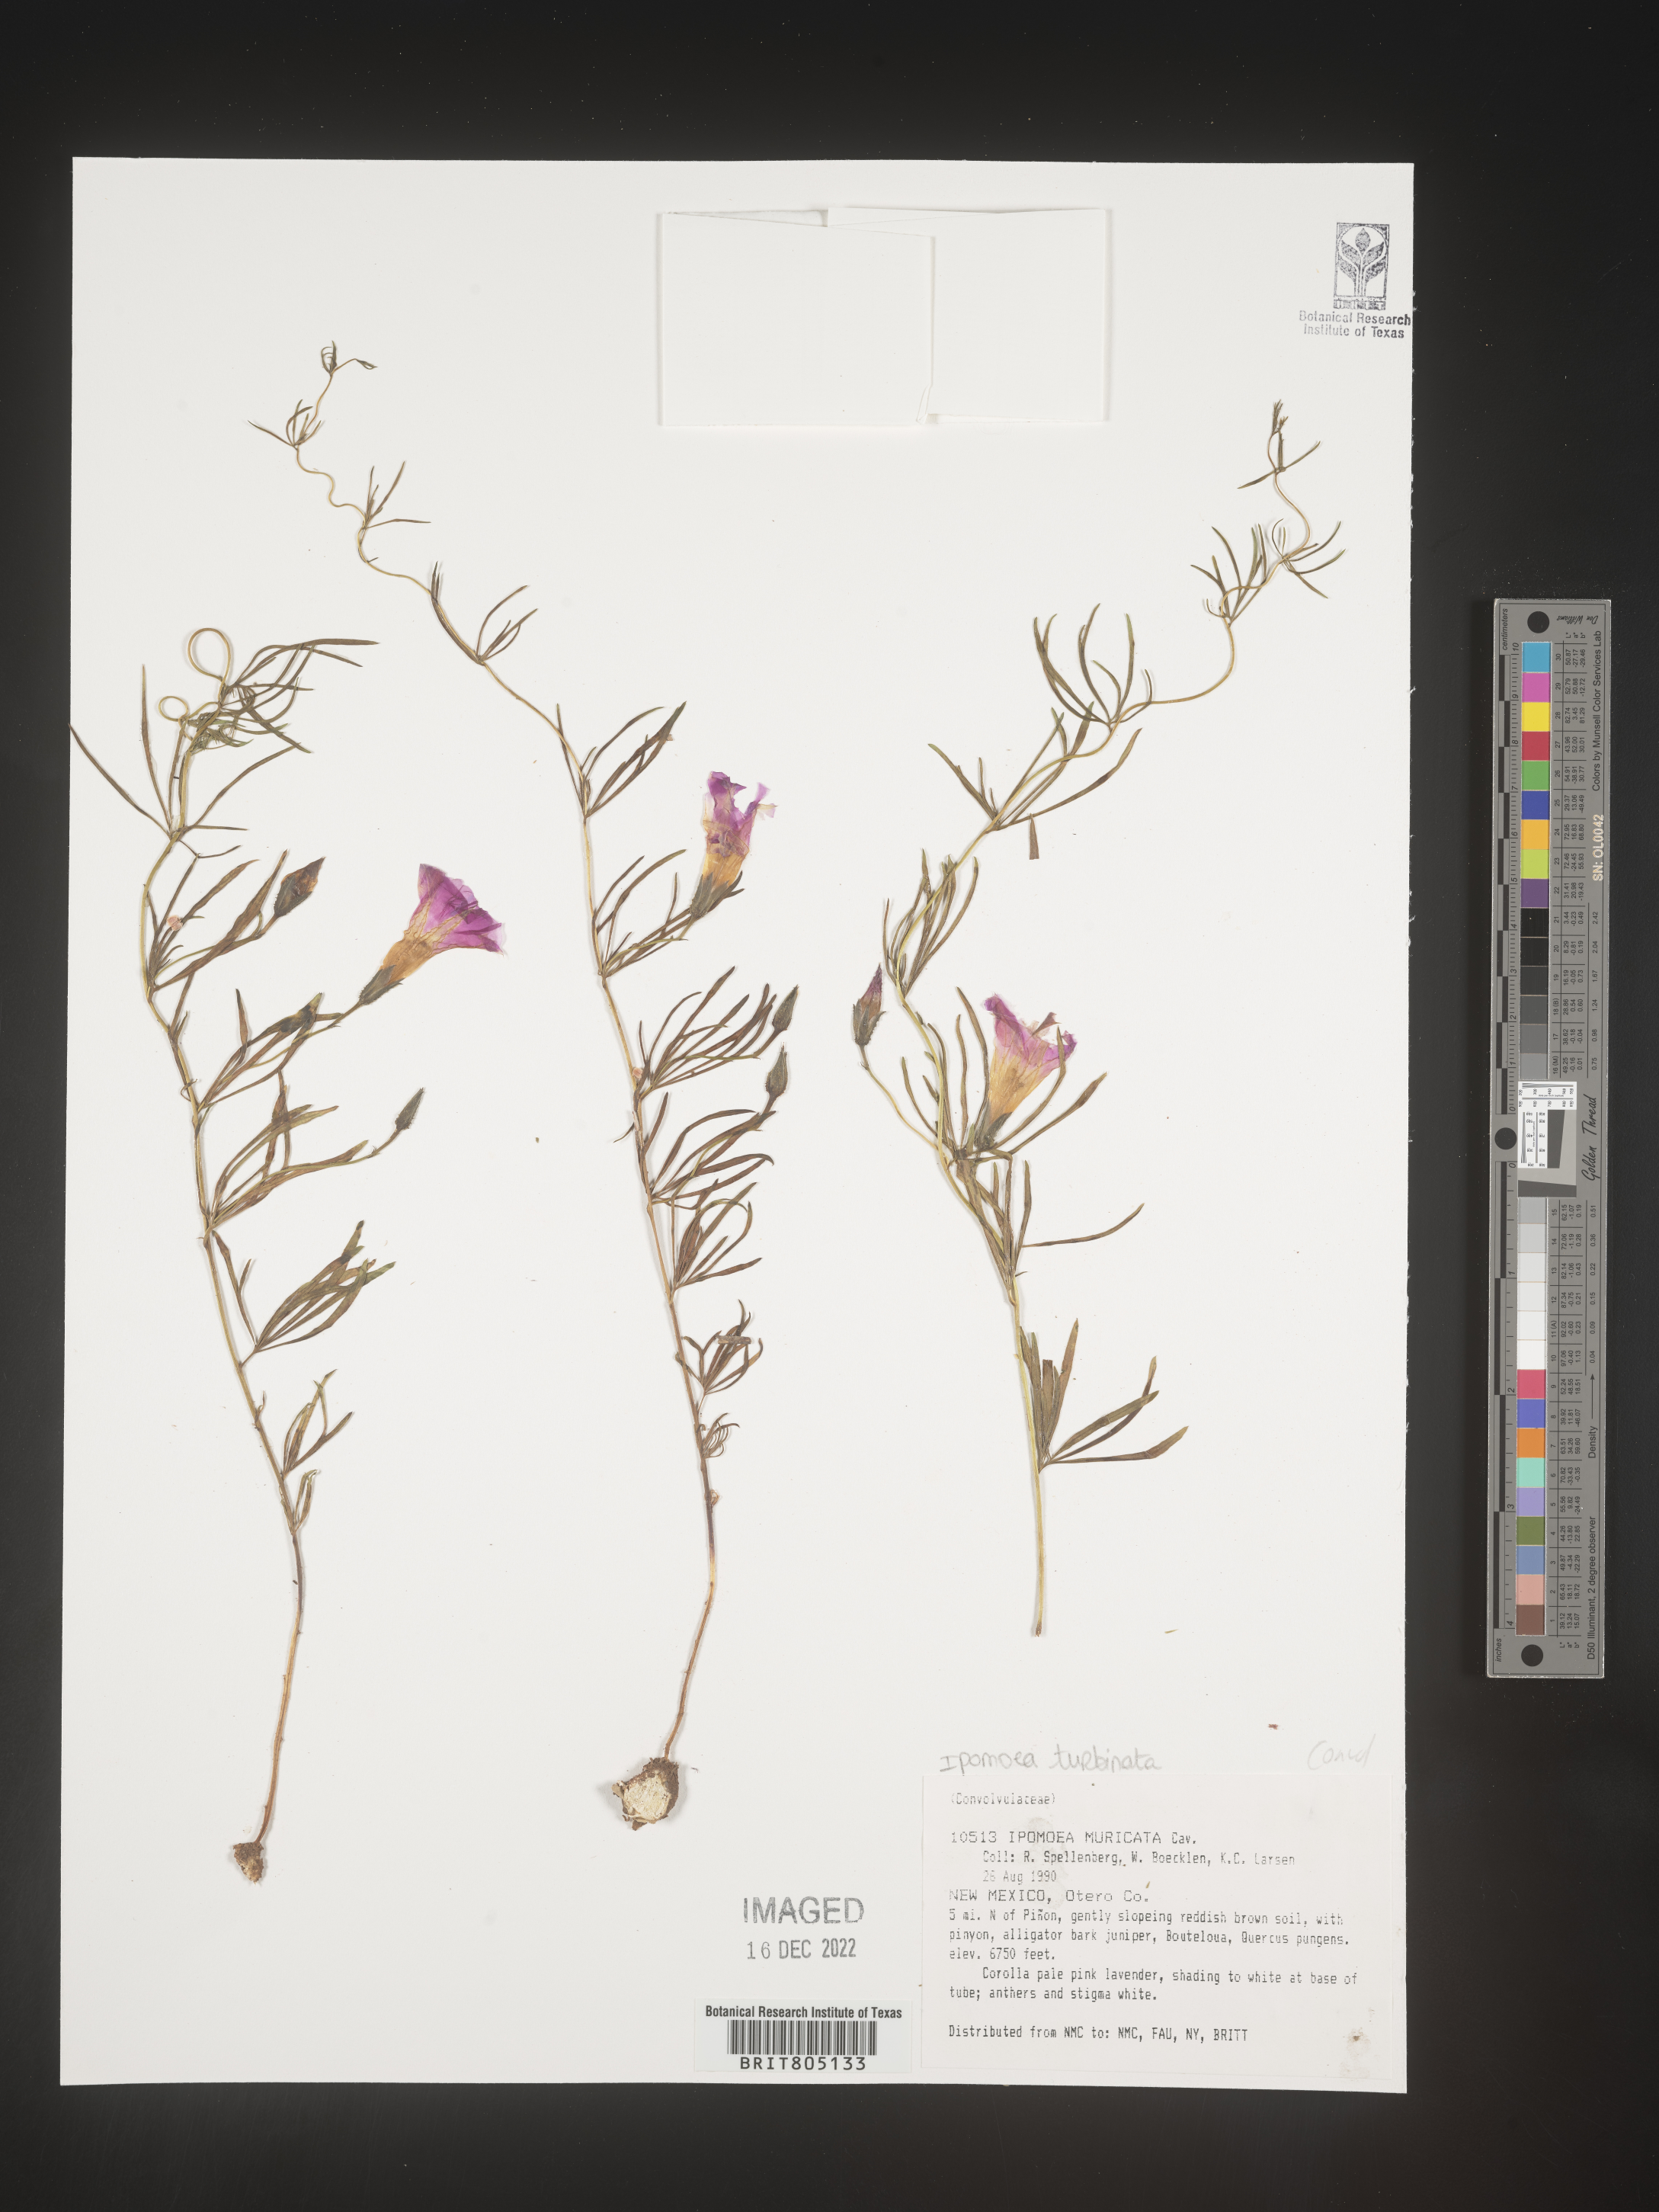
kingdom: Plantae
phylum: Tracheophyta
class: Magnoliopsida
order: Solanales
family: Convolvulaceae
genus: Ipomoea
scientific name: Ipomoea muricata
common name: Lilac-bell
